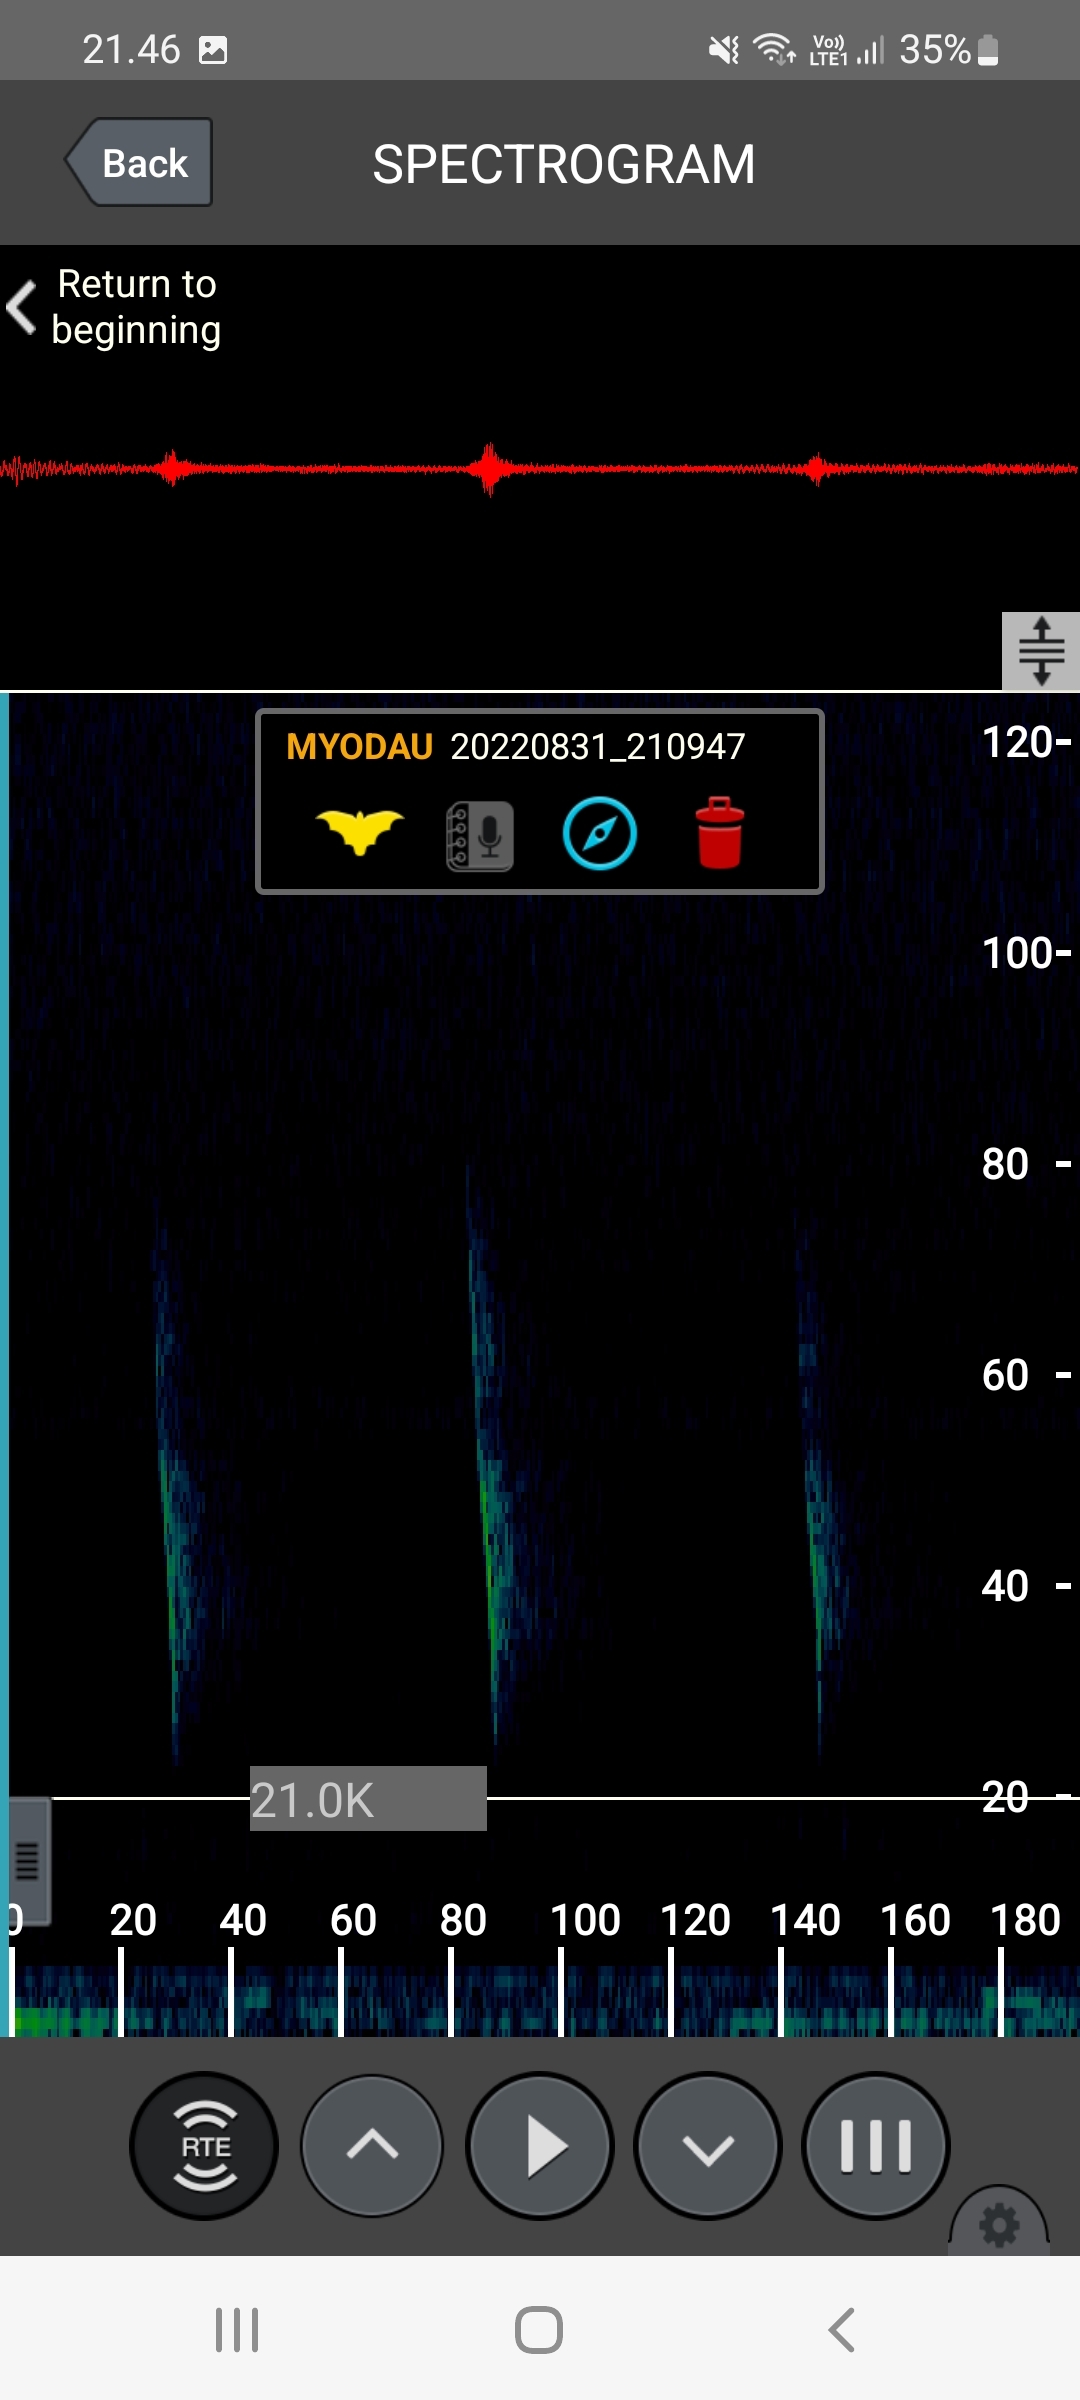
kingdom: Animalia
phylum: Chordata
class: Mammalia
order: Chiroptera
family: Vespertilionidae
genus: Myotis
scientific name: Myotis daubentonii
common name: Vandflagermus
